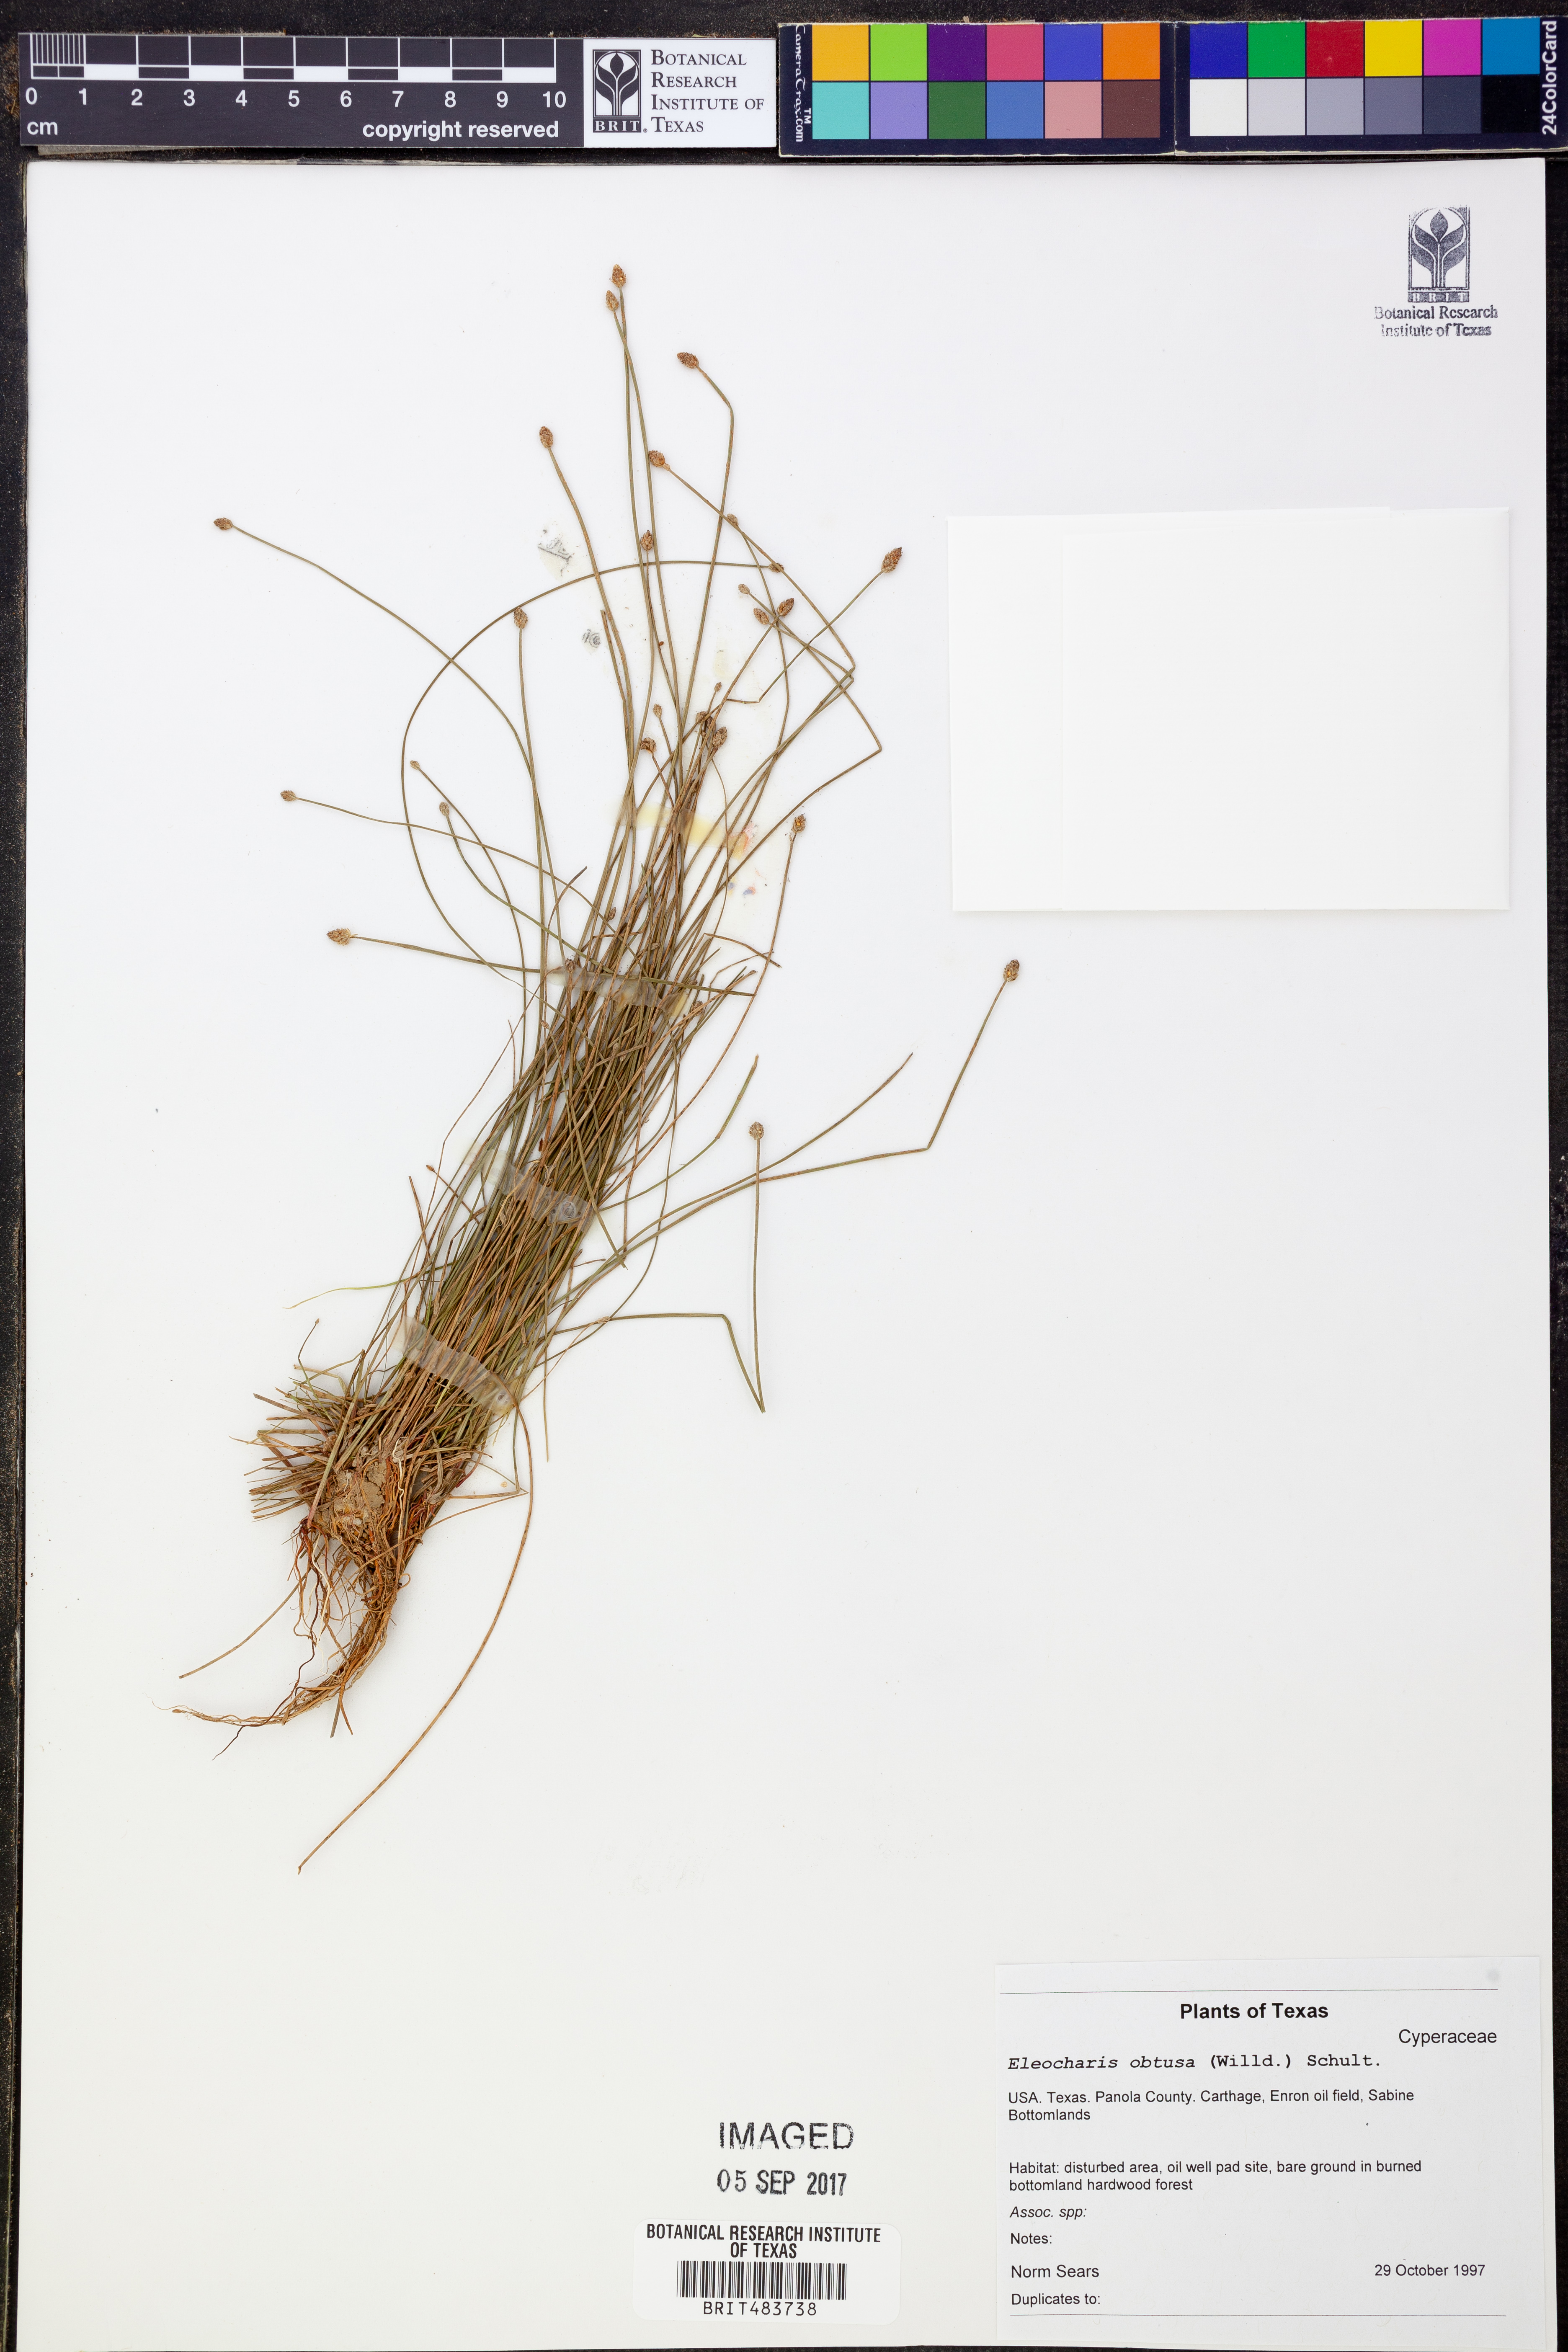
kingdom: Plantae
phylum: Tracheophyta
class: Liliopsida
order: Poales
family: Cyperaceae
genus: Eleocharis
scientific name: Eleocharis obtusa
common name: Blunt spikerush
